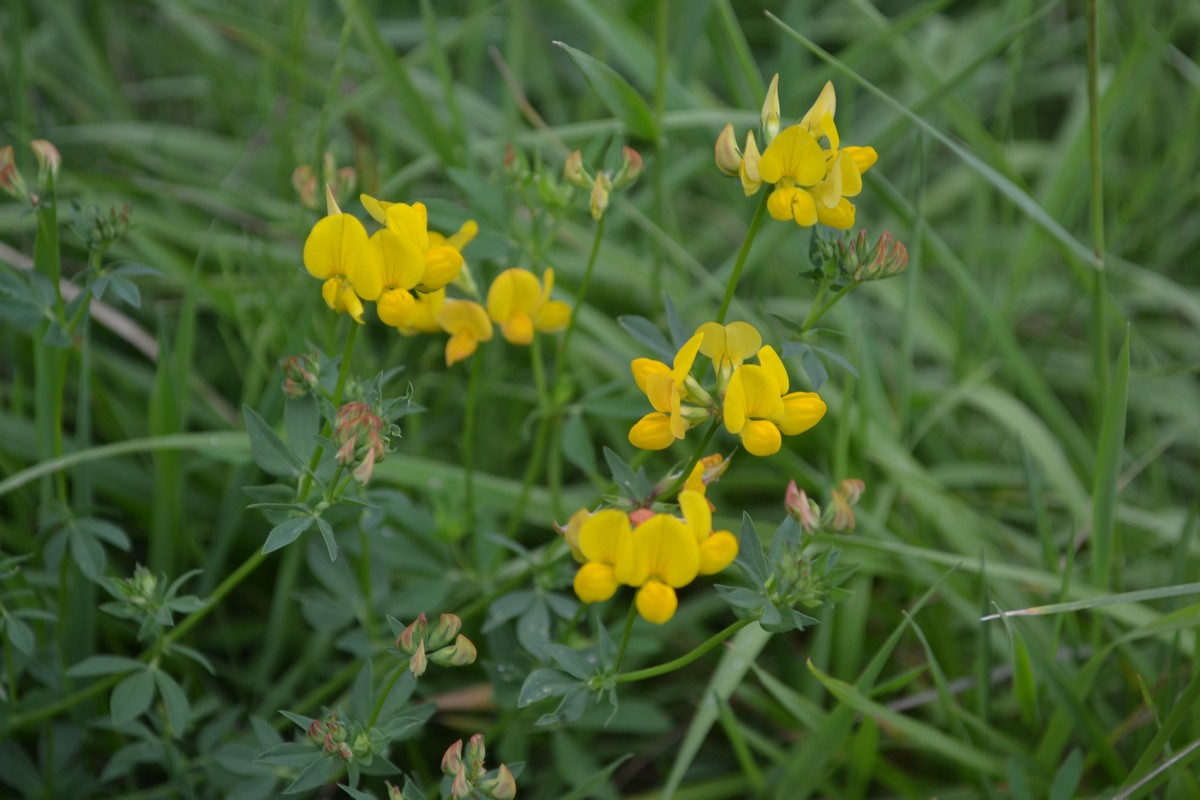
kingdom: Plantae
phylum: Tracheophyta
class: Magnoliopsida
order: Fabales
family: Fabaceae
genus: Lotus
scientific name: Lotus corniculatus
